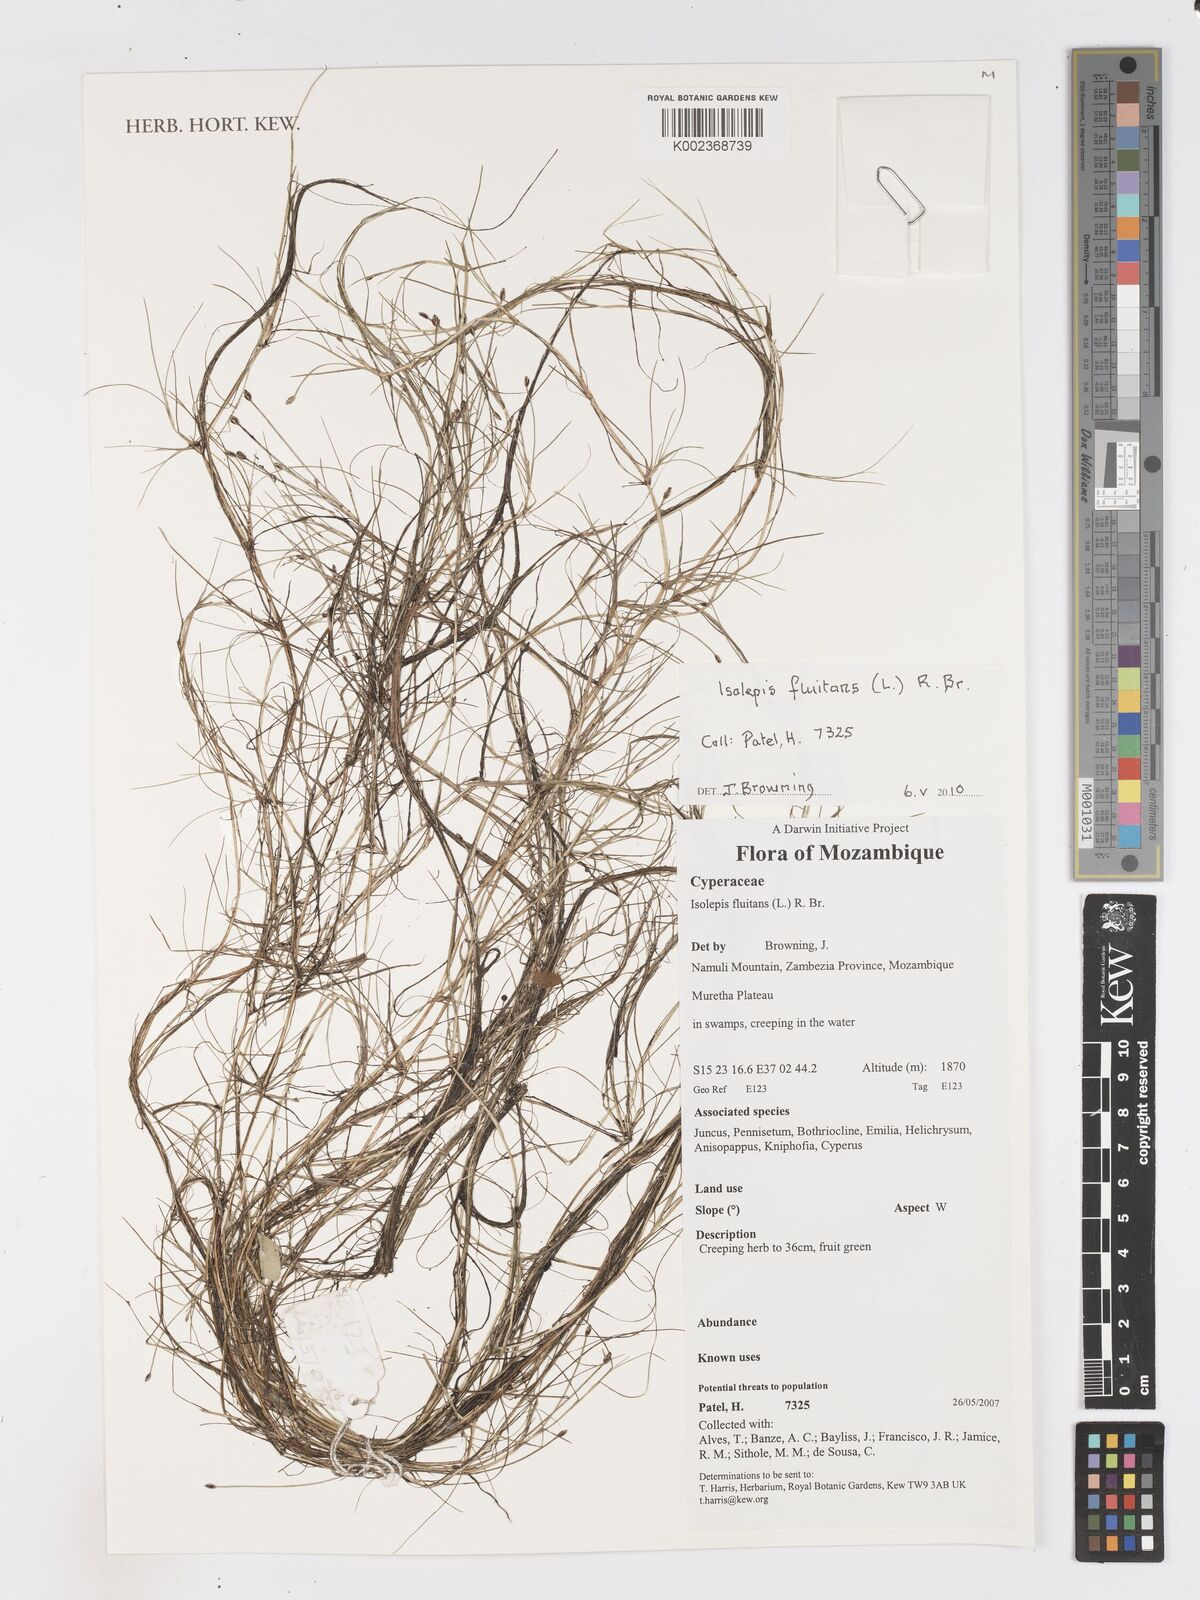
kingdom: Plantae
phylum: Tracheophyta
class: Liliopsida
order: Poales
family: Cyperaceae
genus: Isolepis
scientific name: Isolepis fluitans
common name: Floating club-rush
